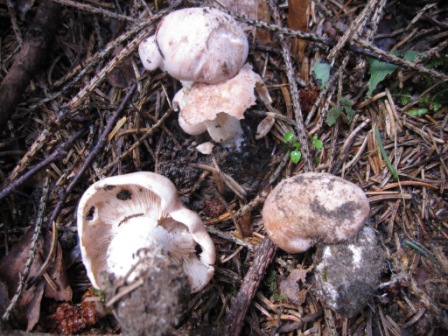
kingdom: Fungi
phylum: Basidiomycota
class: Agaricomycetes
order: Agaricales
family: Entolomataceae
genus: Clitopilus
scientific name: Clitopilus geminus
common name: kødfarvet troldhat
